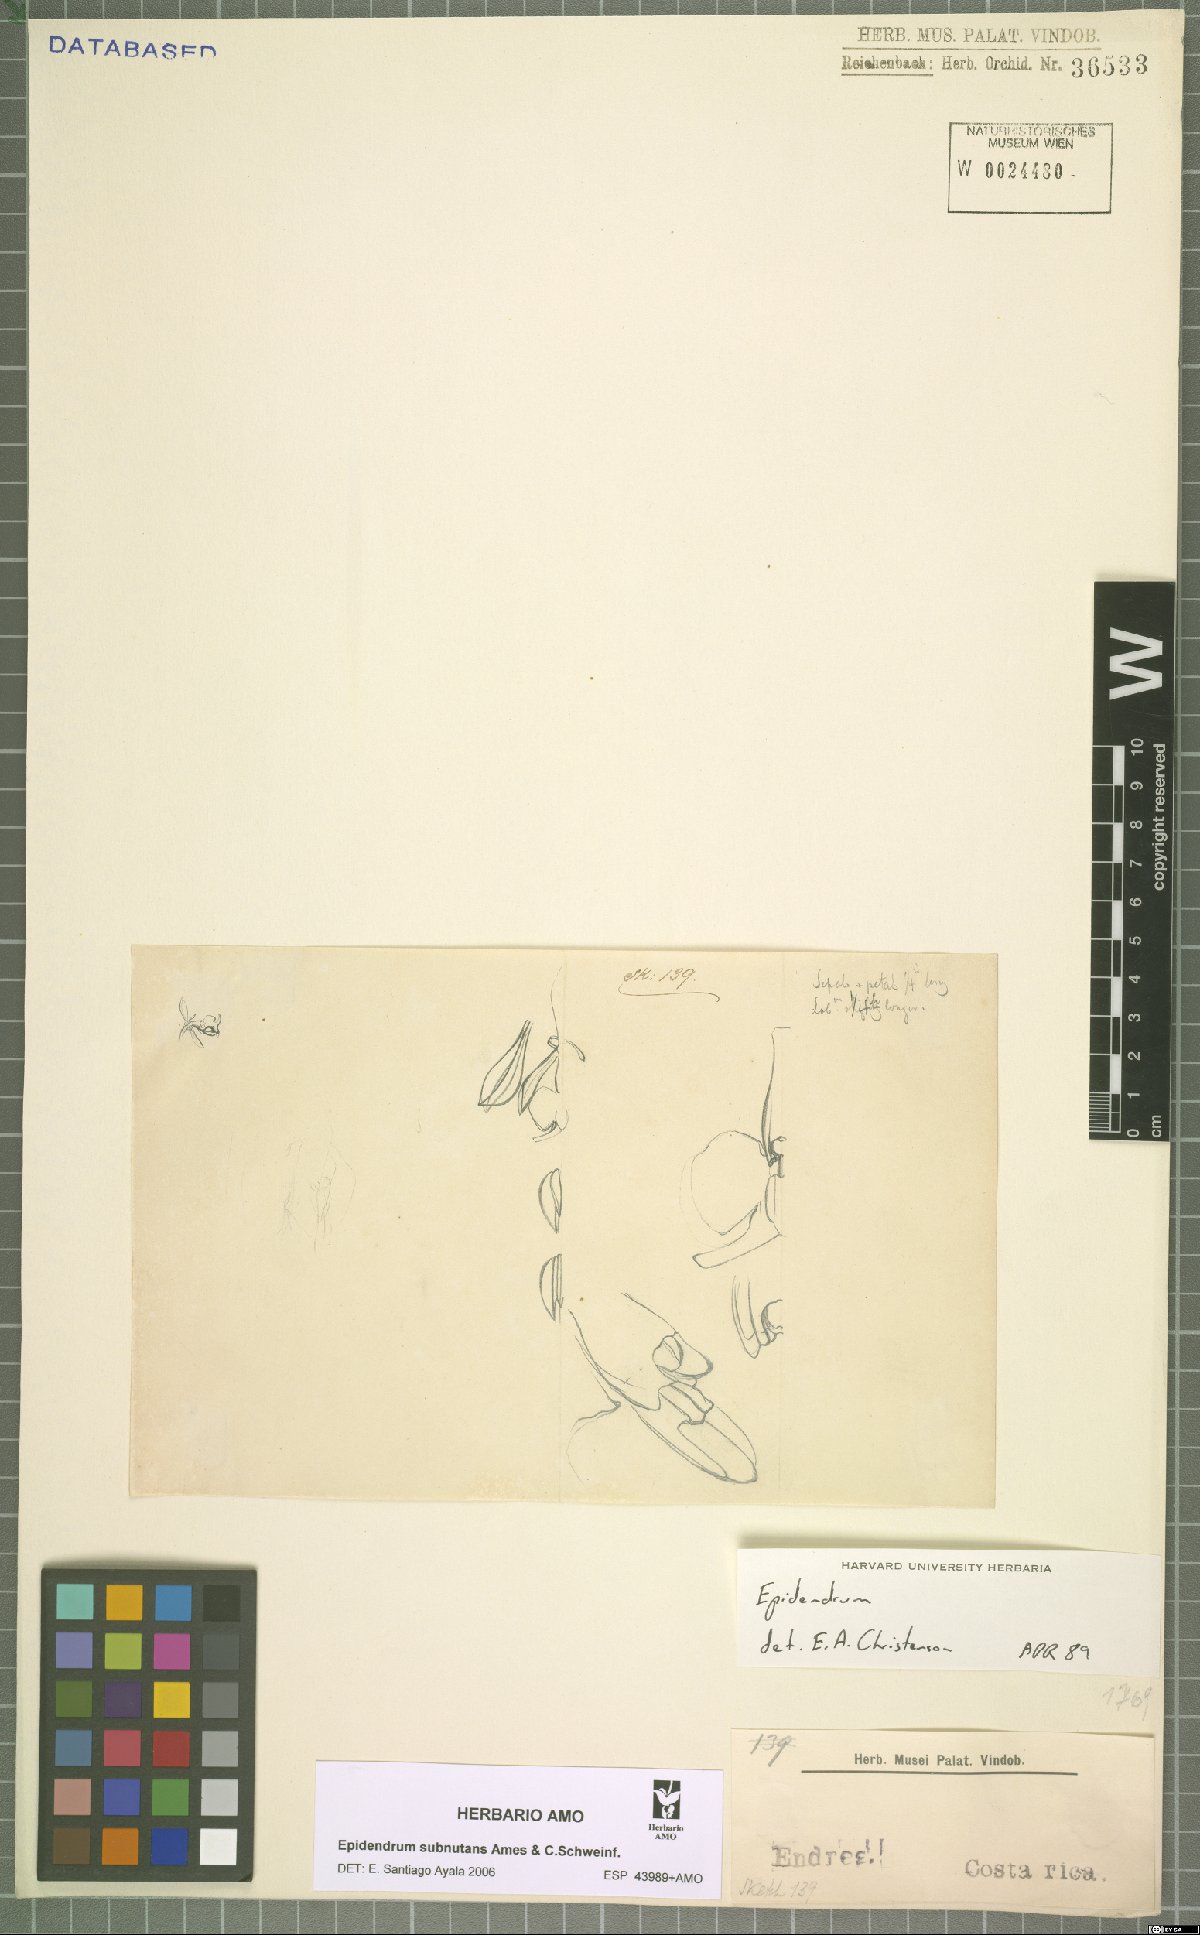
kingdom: Plantae
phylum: Tracheophyta
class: Liliopsida
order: Asparagales
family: Orchidaceae
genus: Epidendrum
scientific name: Epidendrum subnutans
